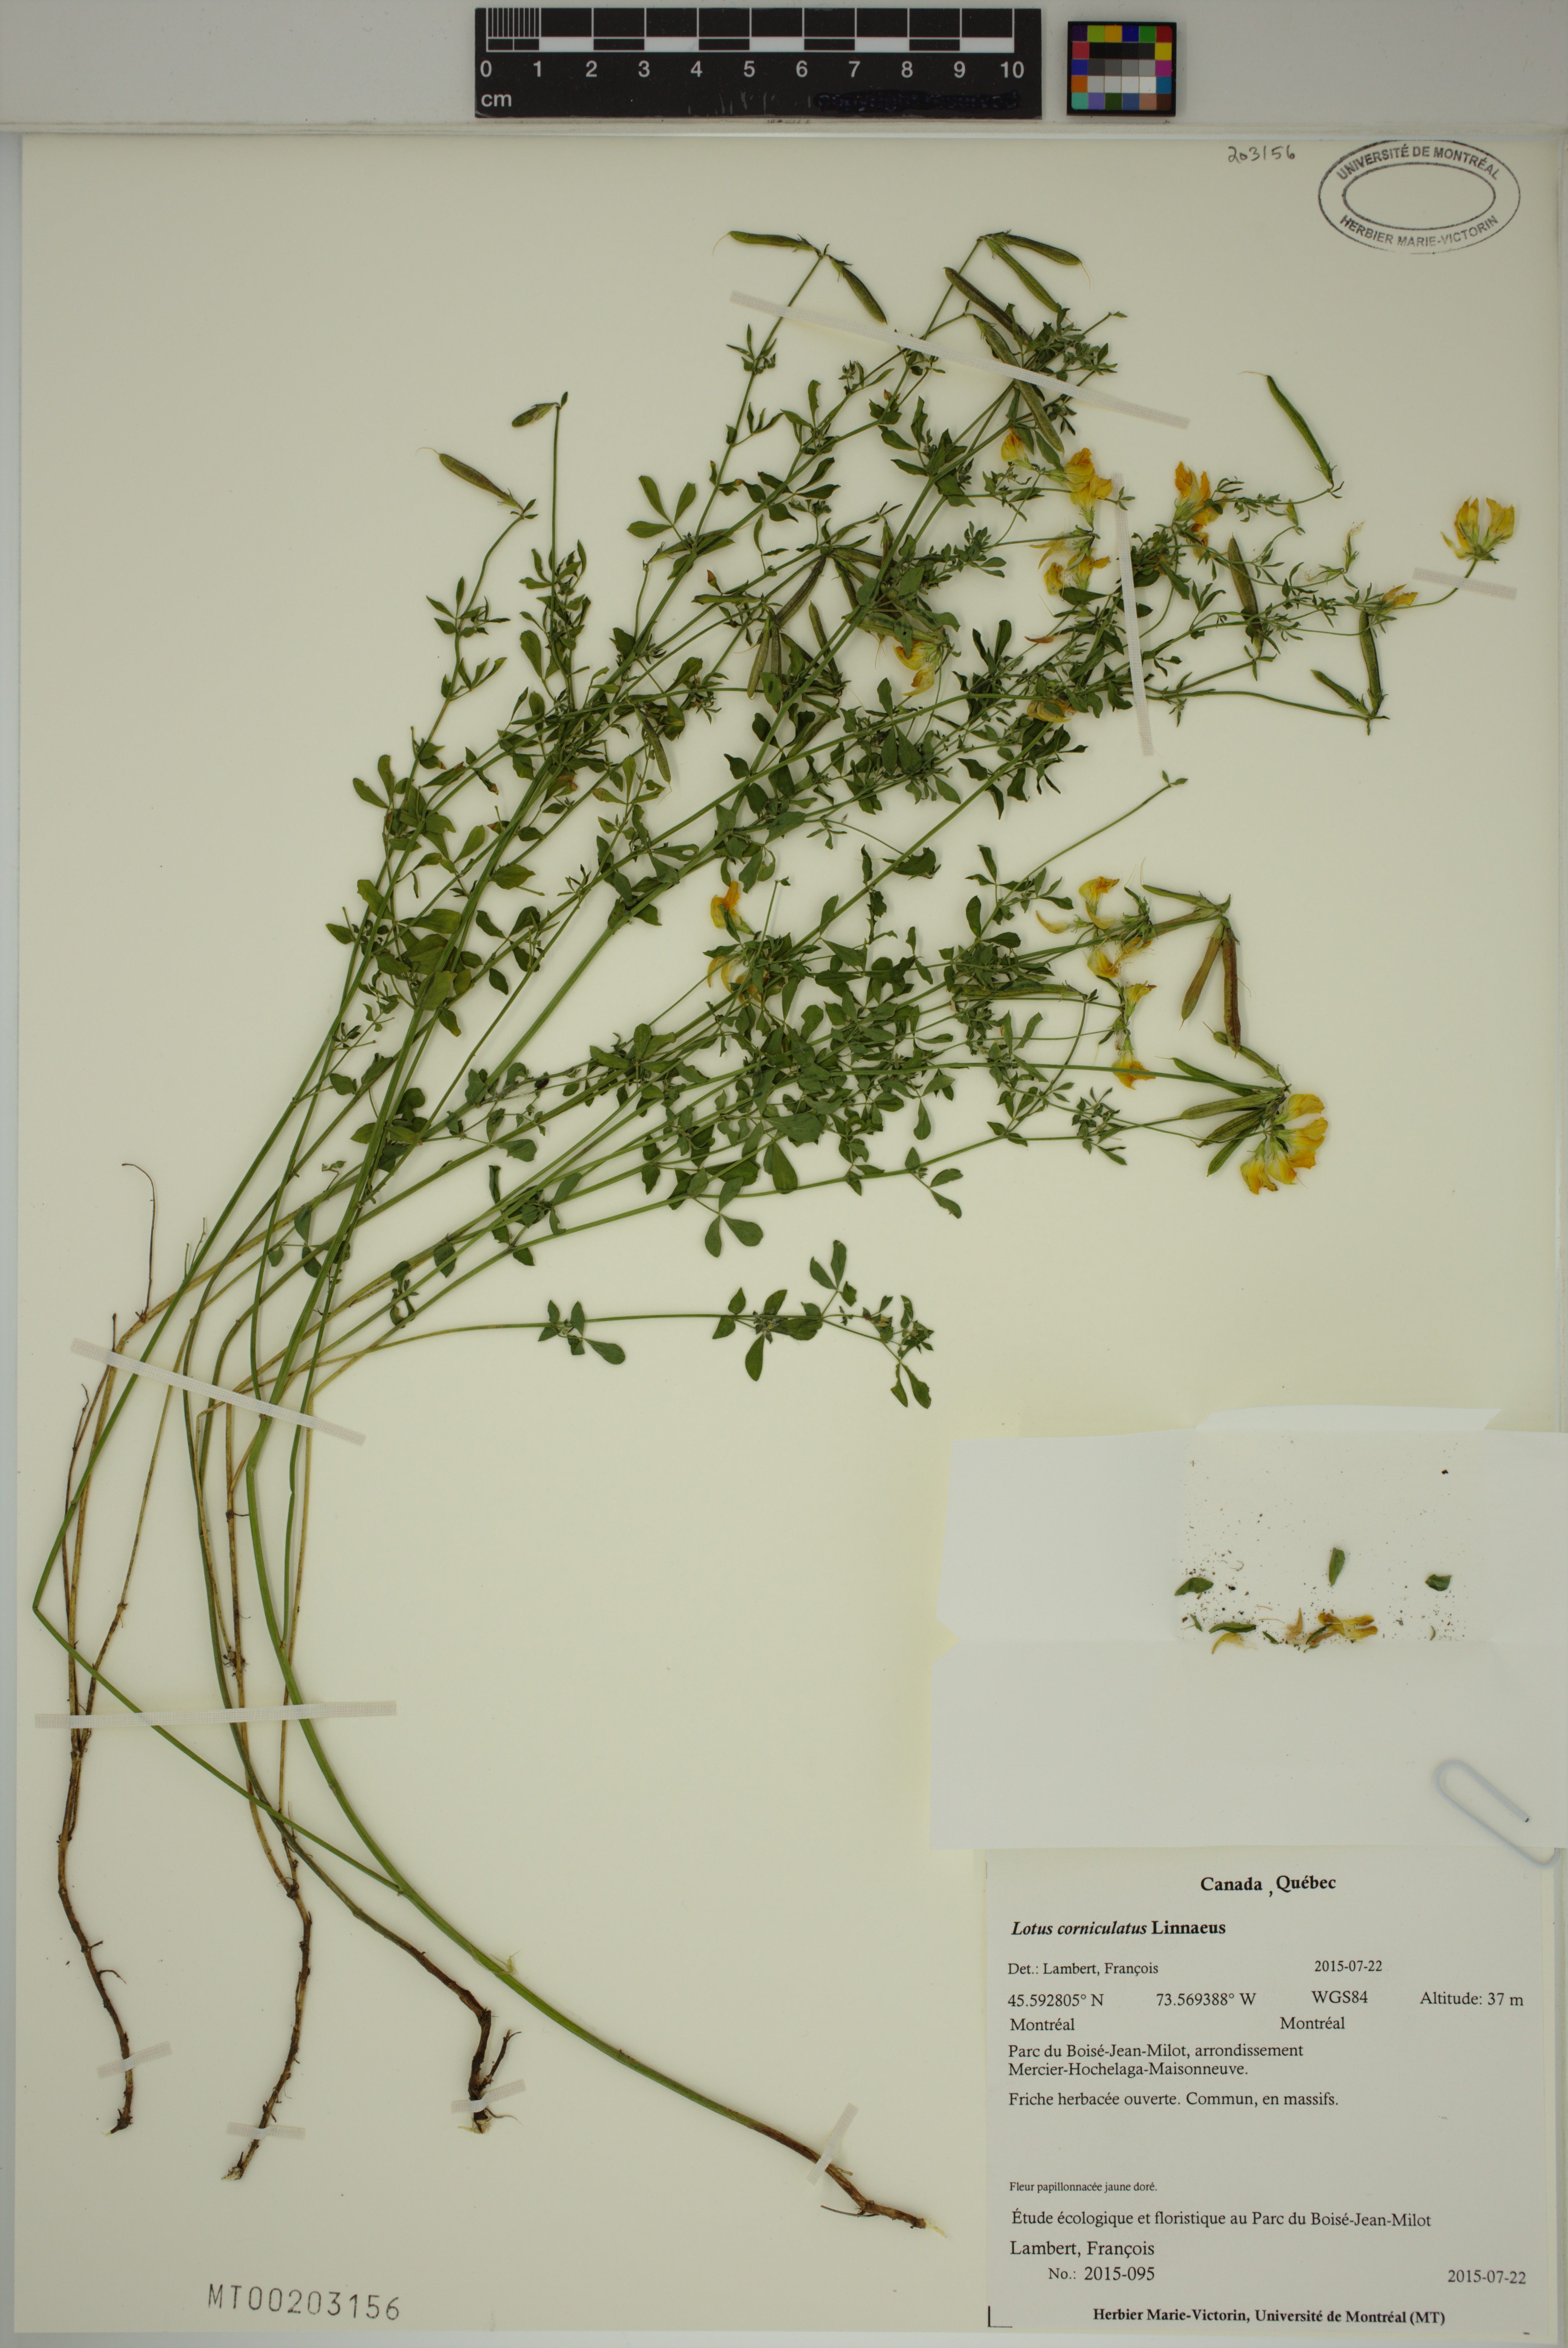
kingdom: Plantae
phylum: Tracheophyta
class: Magnoliopsida
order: Fabales
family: Fabaceae
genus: Lotus
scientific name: Lotus corniculatus
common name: Common bird's-foot-trefoil
